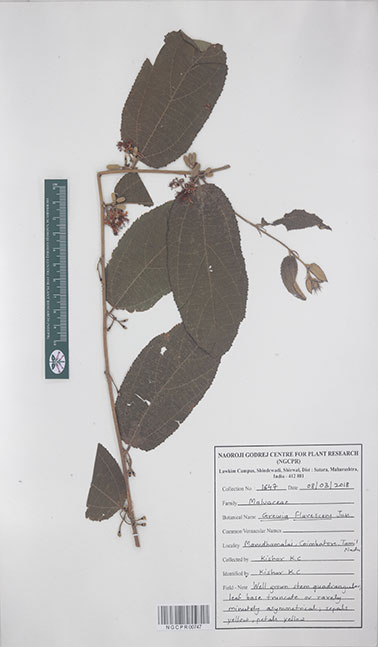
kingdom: Plantae
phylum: Tracheophyta
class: Magnoliopsida
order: Malvales
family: Malvaceae
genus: Grewia
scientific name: Grewia flavescens
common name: Sandpaper raisin
